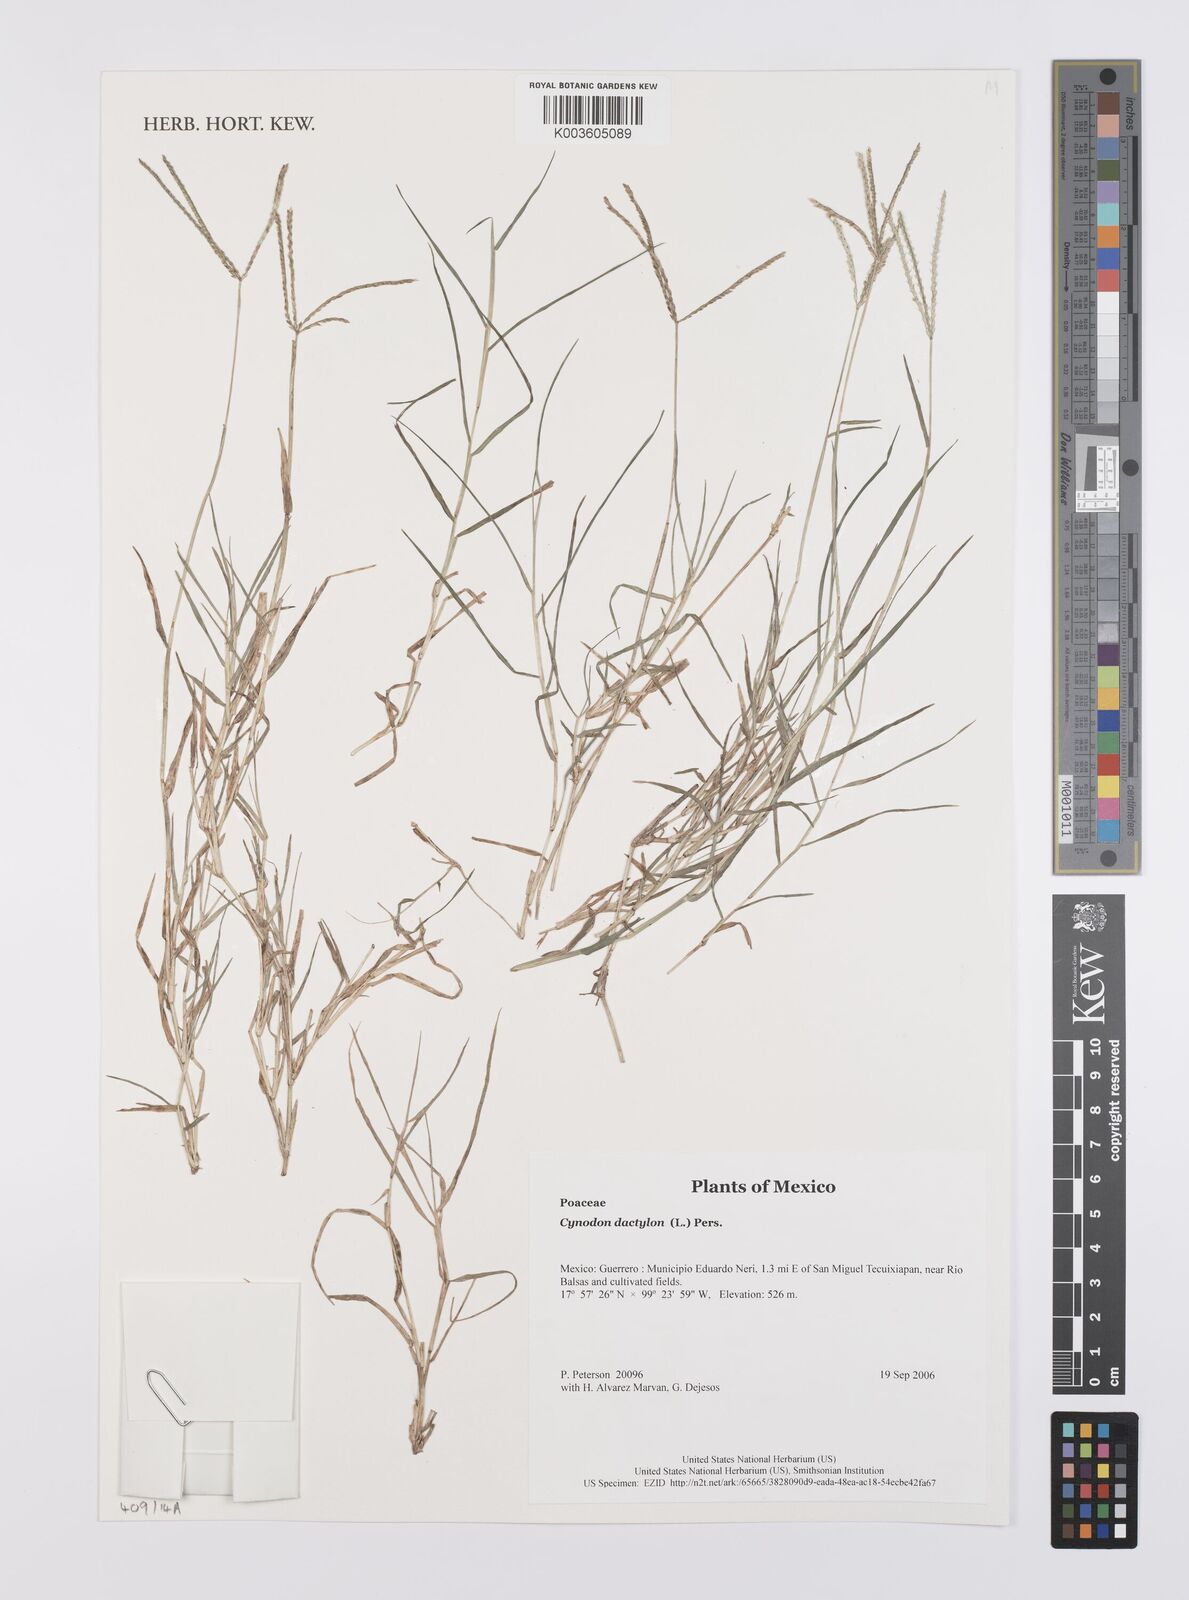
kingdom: Plantae
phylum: Tracheophyta
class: Liliopsida
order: Poales
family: Poaceae
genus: Cynodon
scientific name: Cynodon dactylon
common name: Bermuda grass
